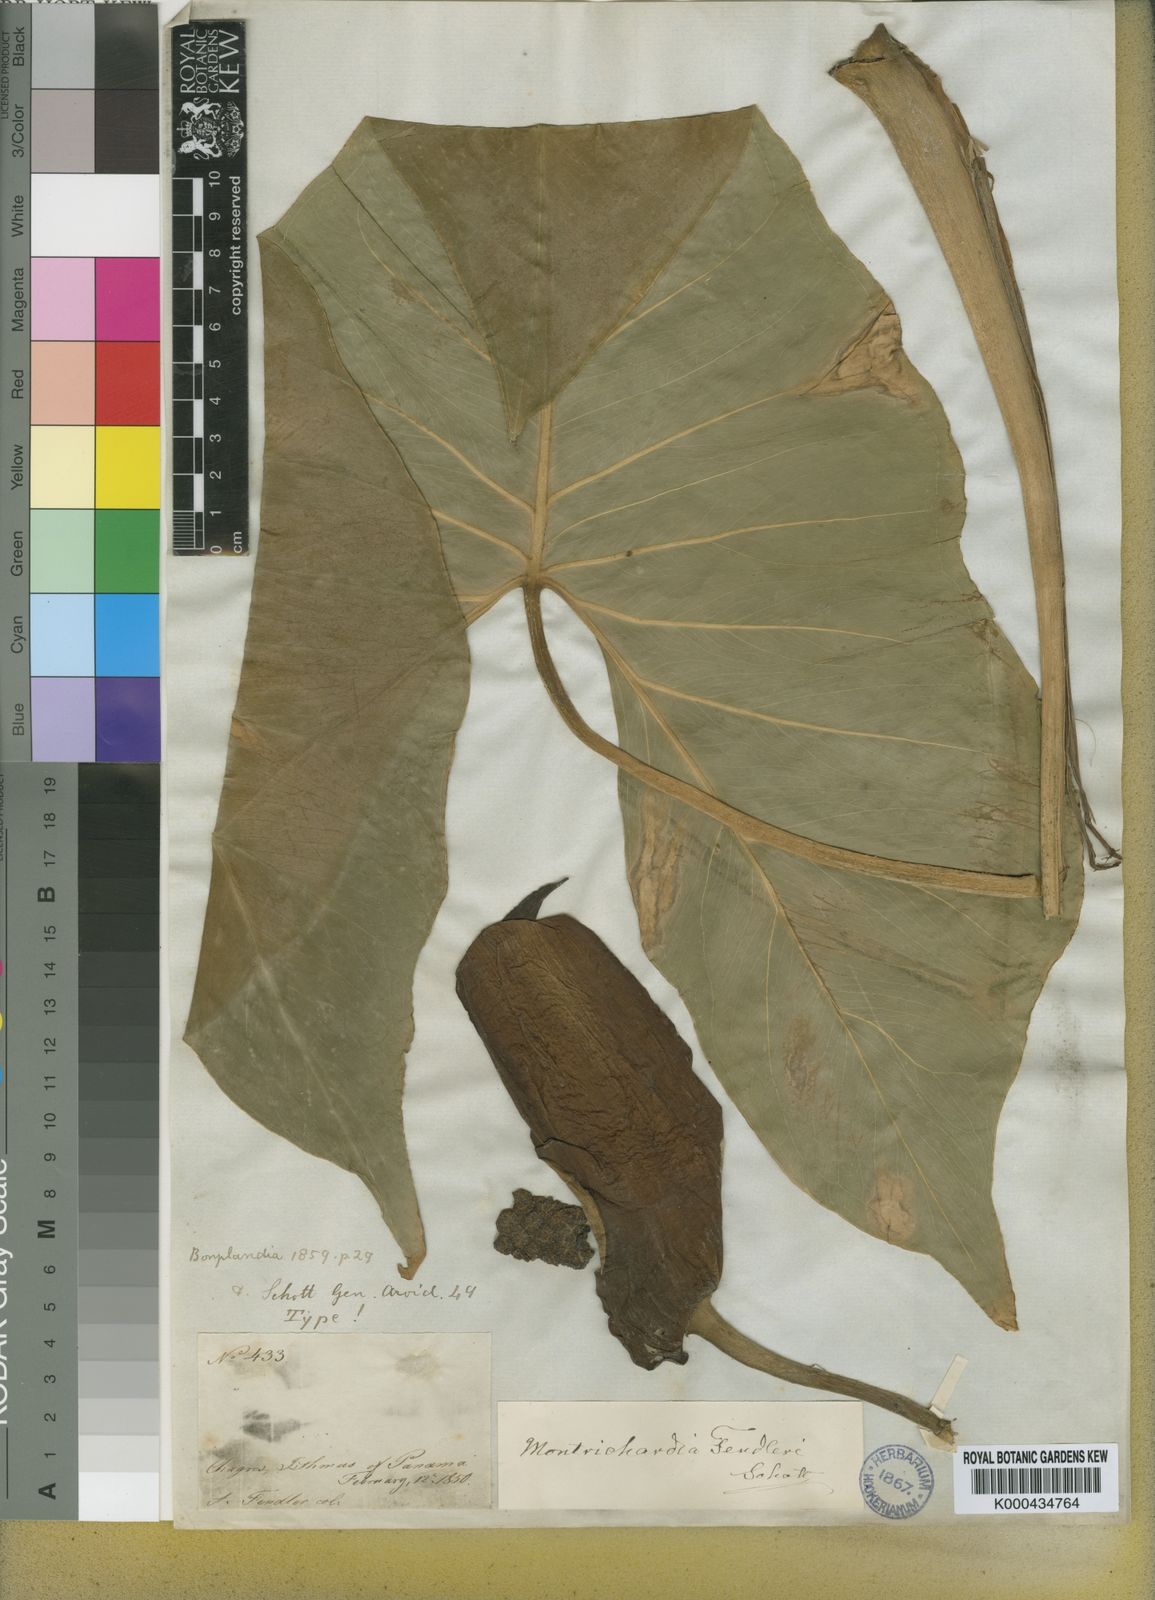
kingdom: Plantae
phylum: Tracheophyta
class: Liliopsida
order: Alismatales
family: Araceae
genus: Montrichardia
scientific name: Montrichardia arborescens
